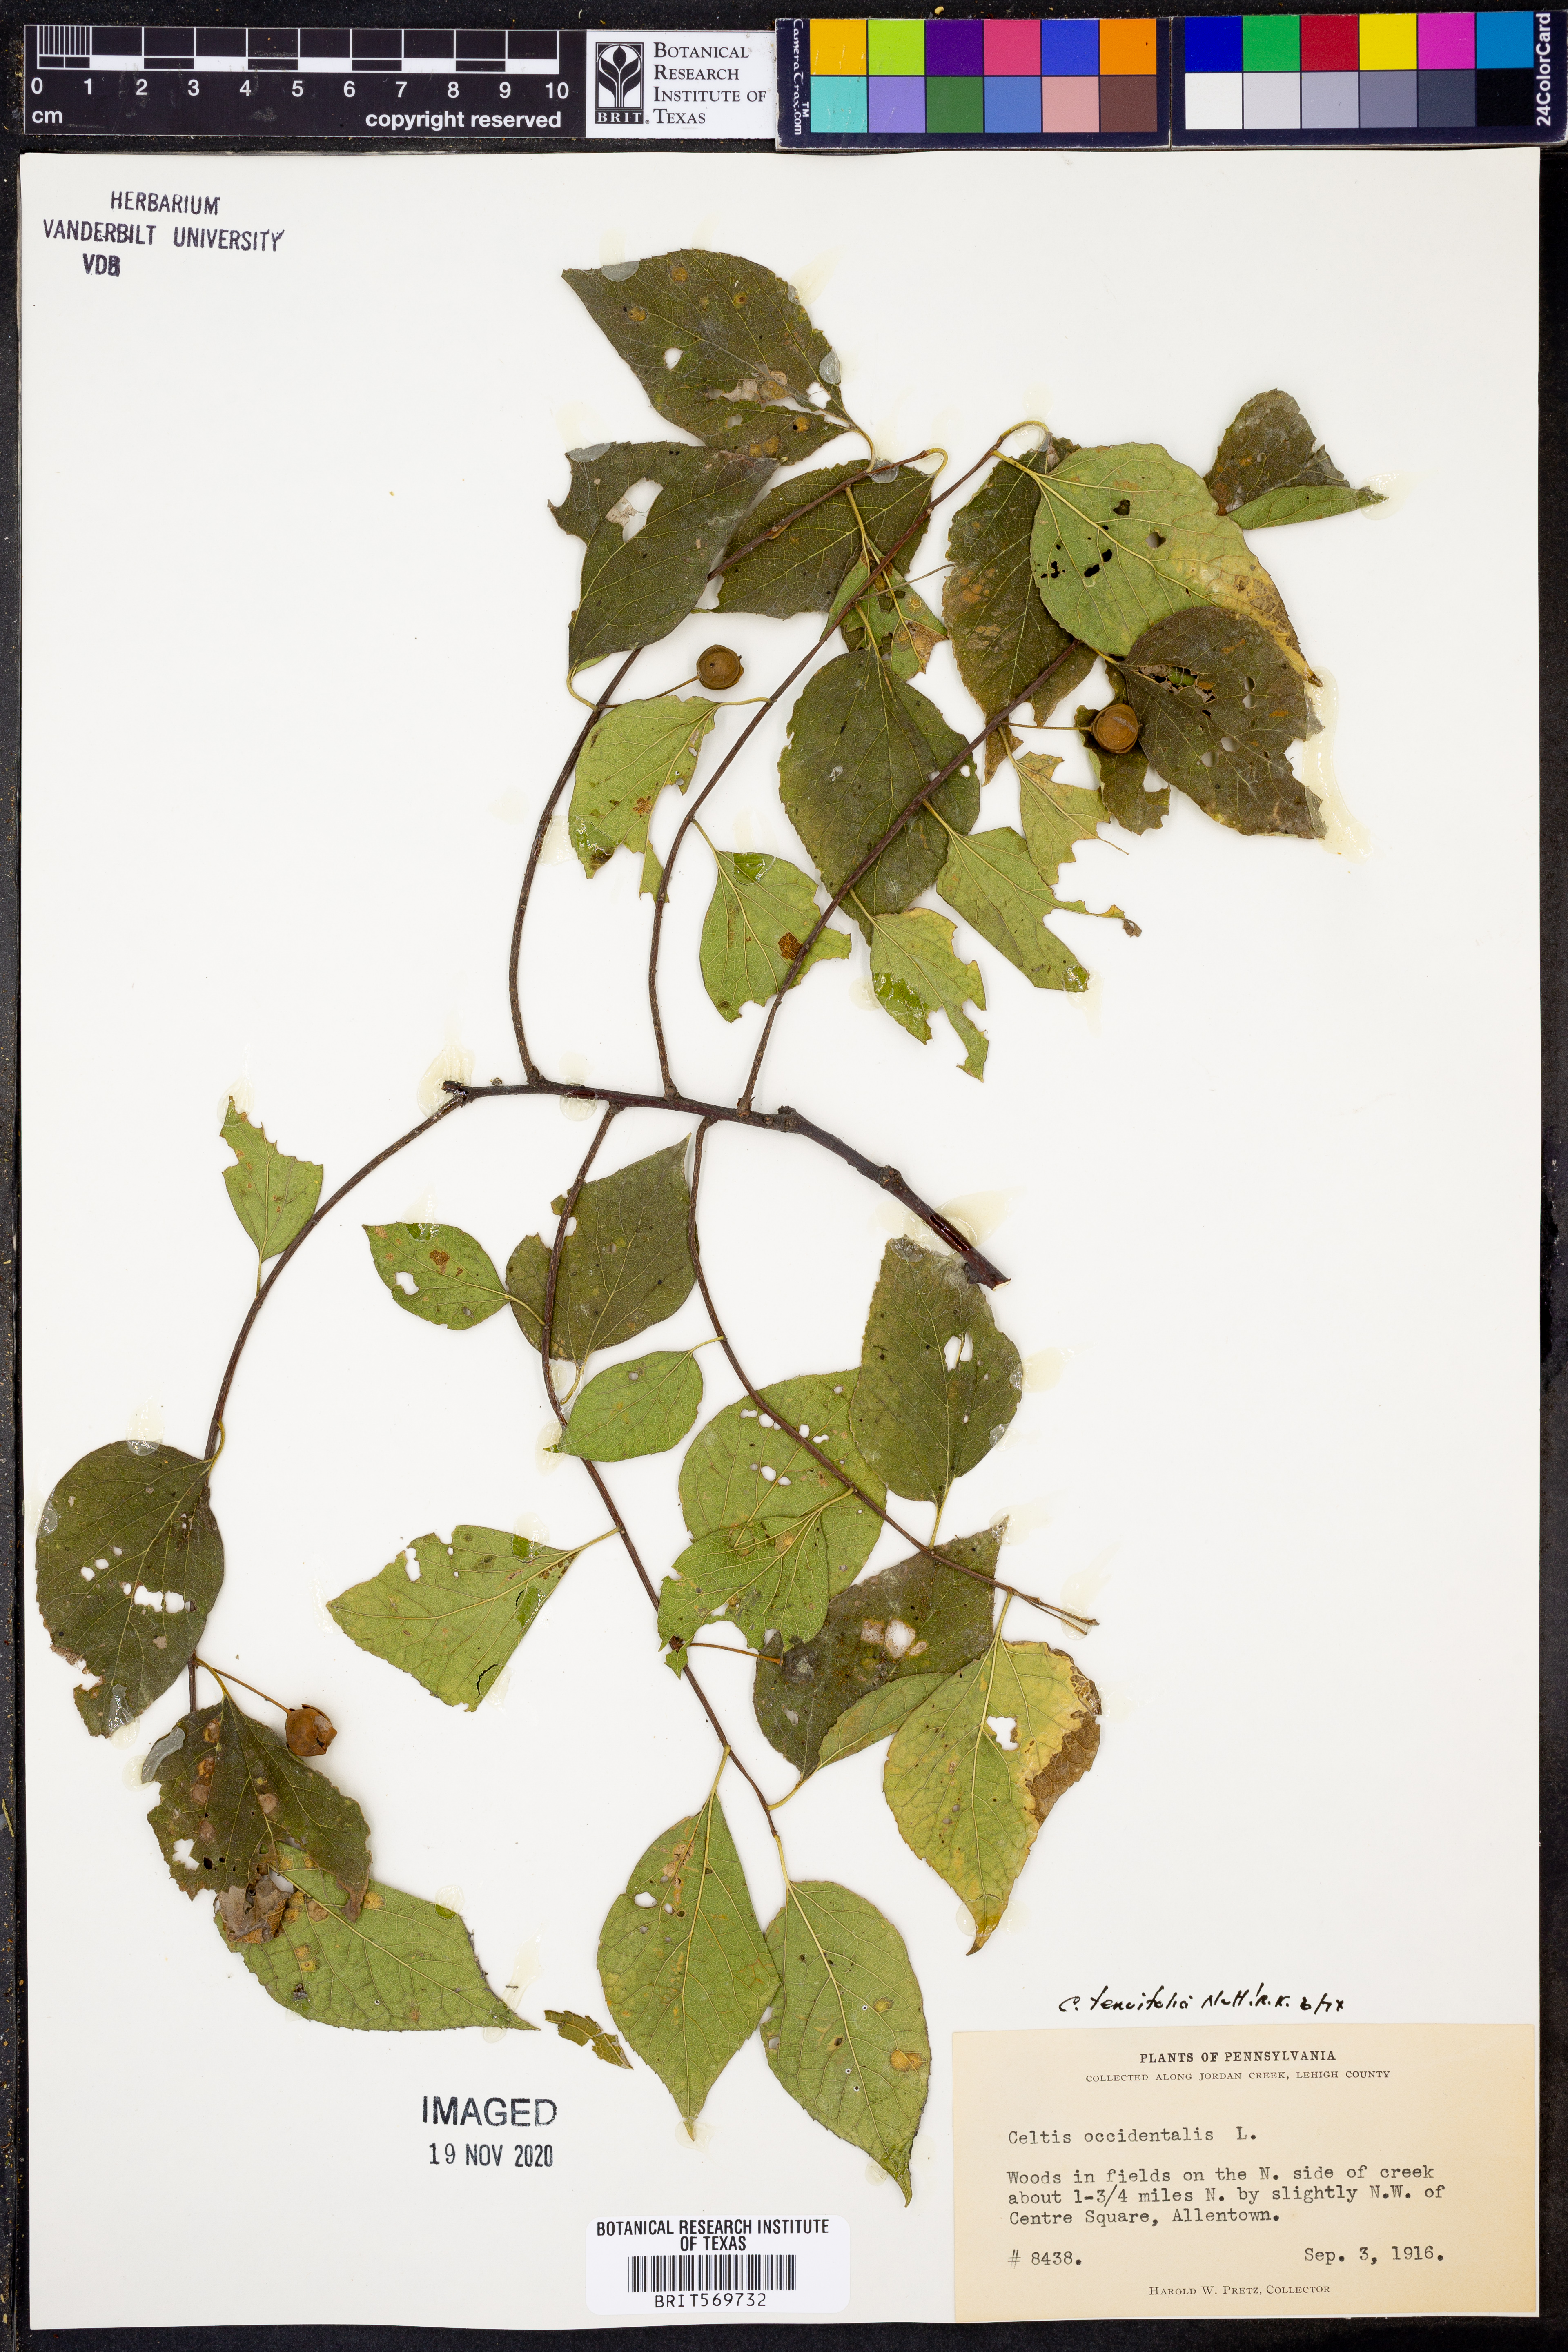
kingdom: Plantae
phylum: Tracheophyta
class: Magnoliopsida
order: Rosales
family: Cannabaceae
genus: Celtis
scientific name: Celtis tenuifolia
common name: Georgia hackberry
